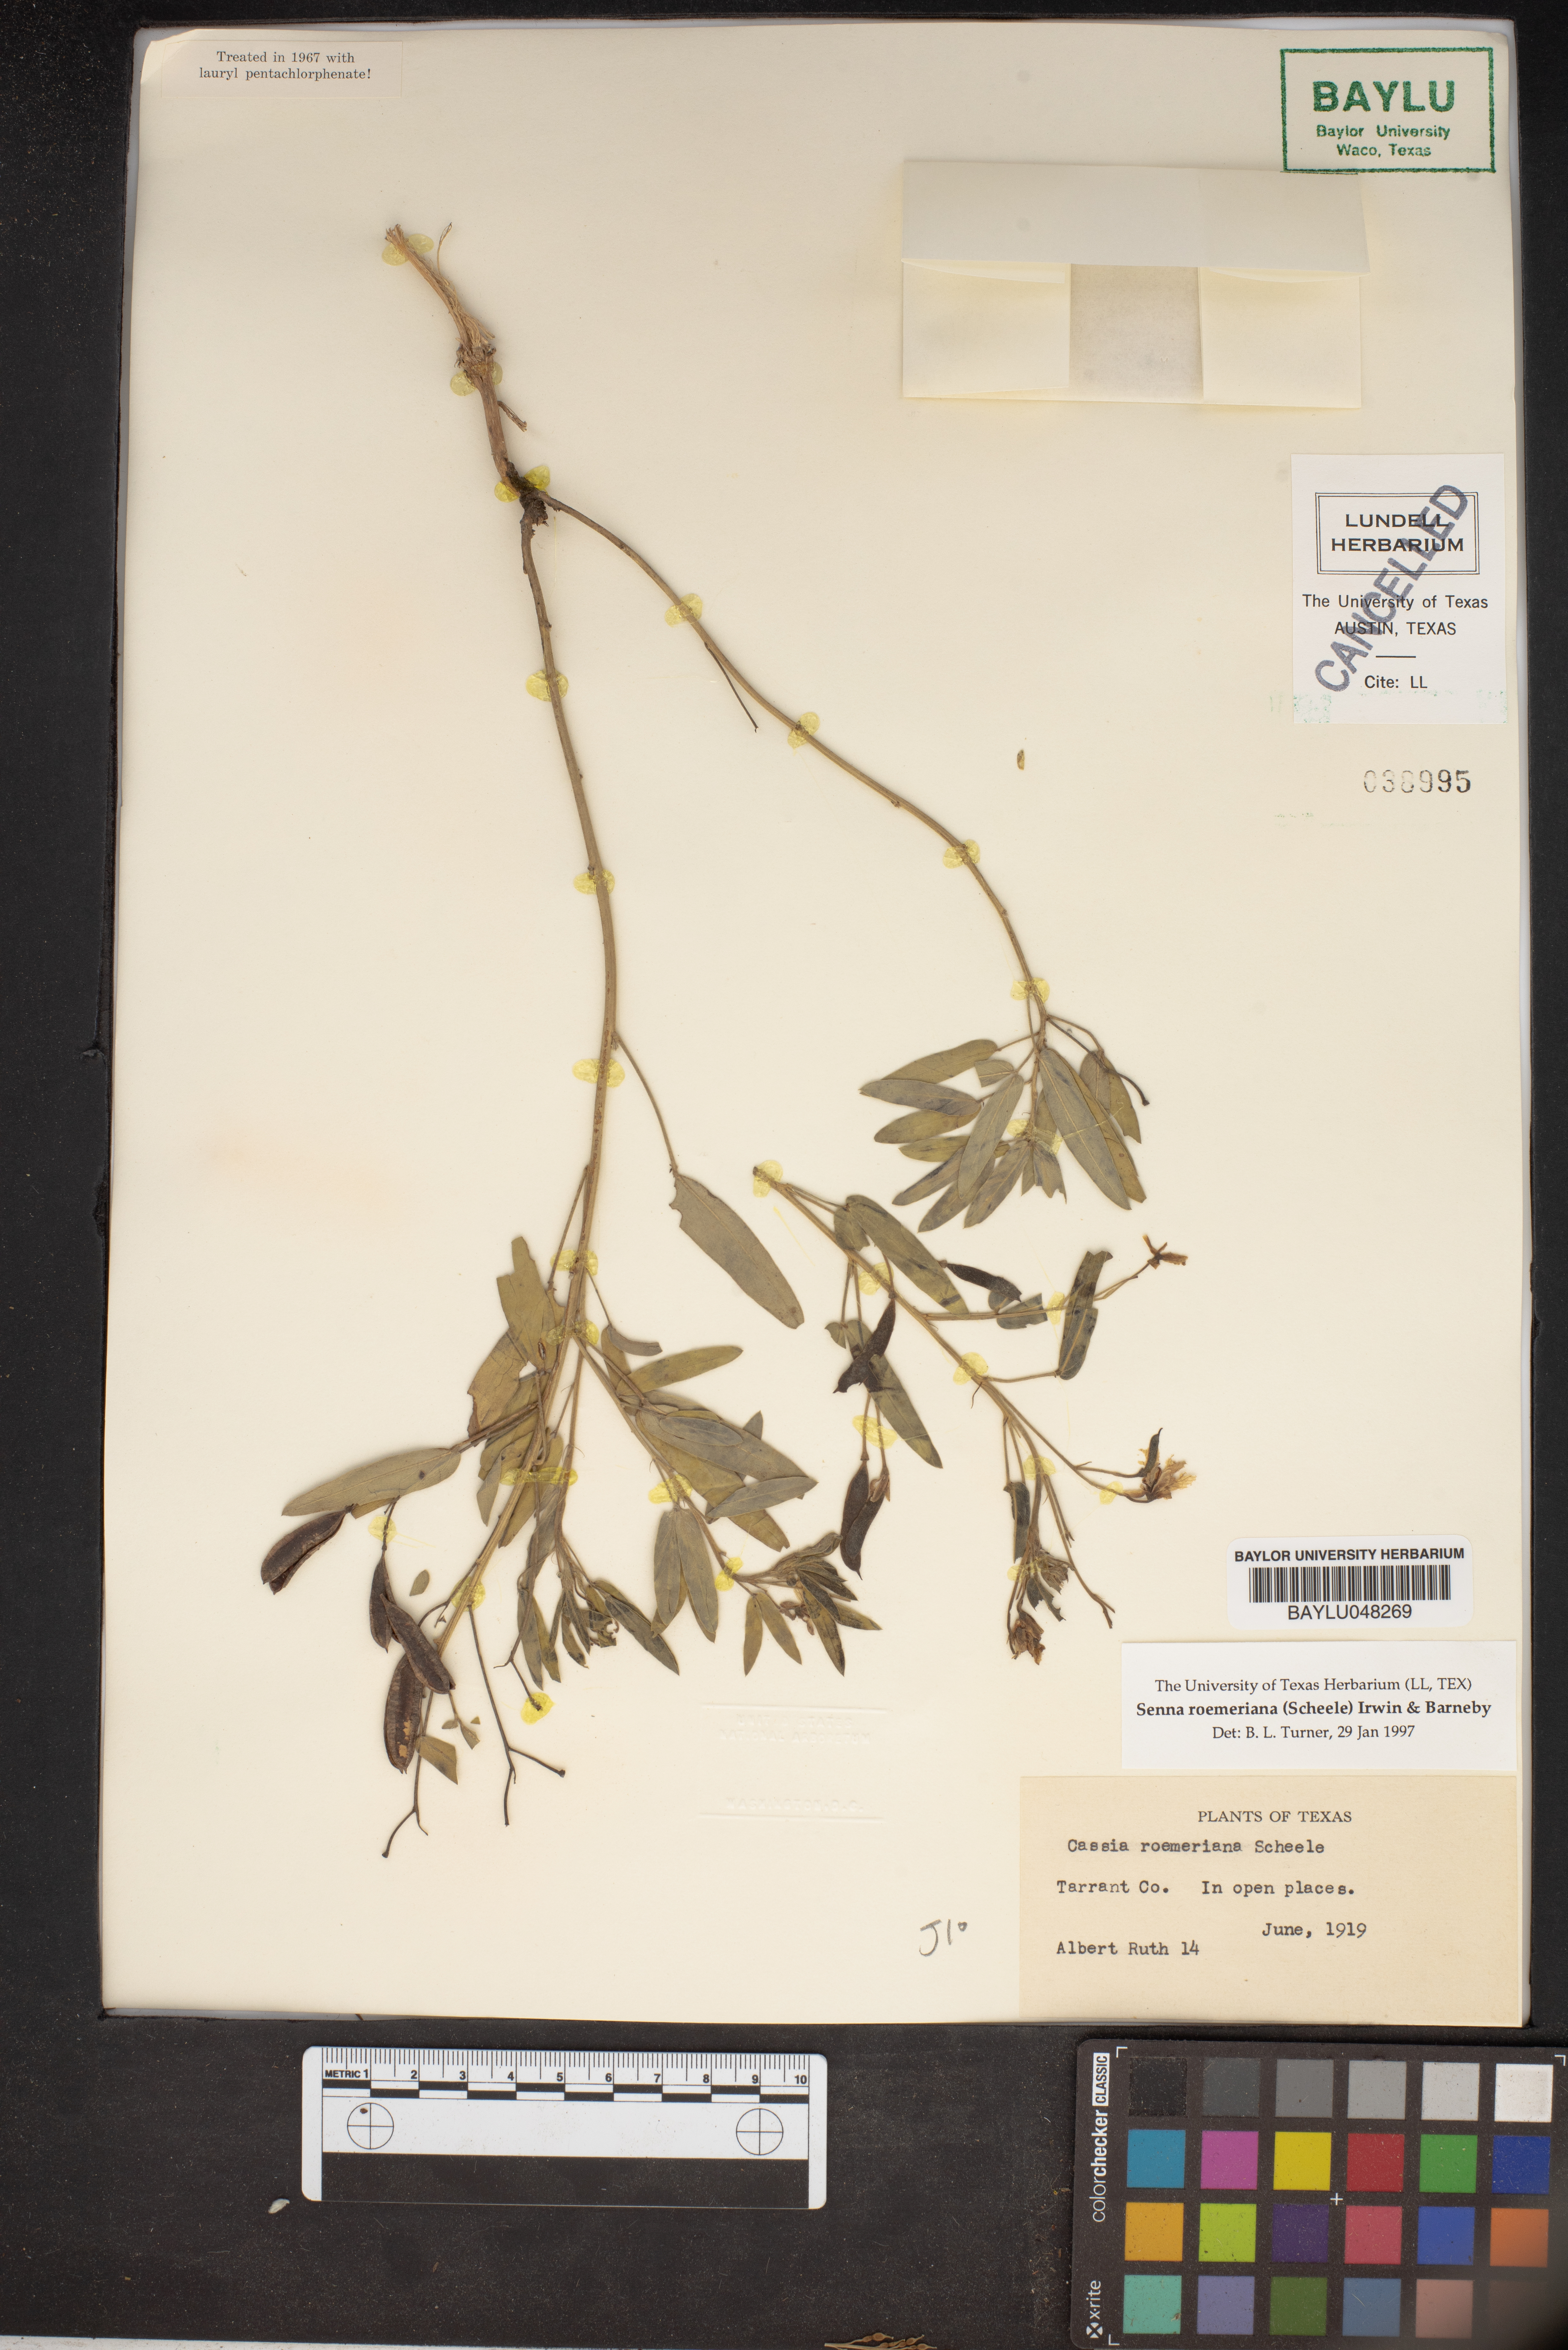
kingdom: Plantae
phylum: Tracheophyta
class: Magnoliopsida
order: Fabales
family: Fabaceae
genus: Senna
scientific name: Senna roemeriana
